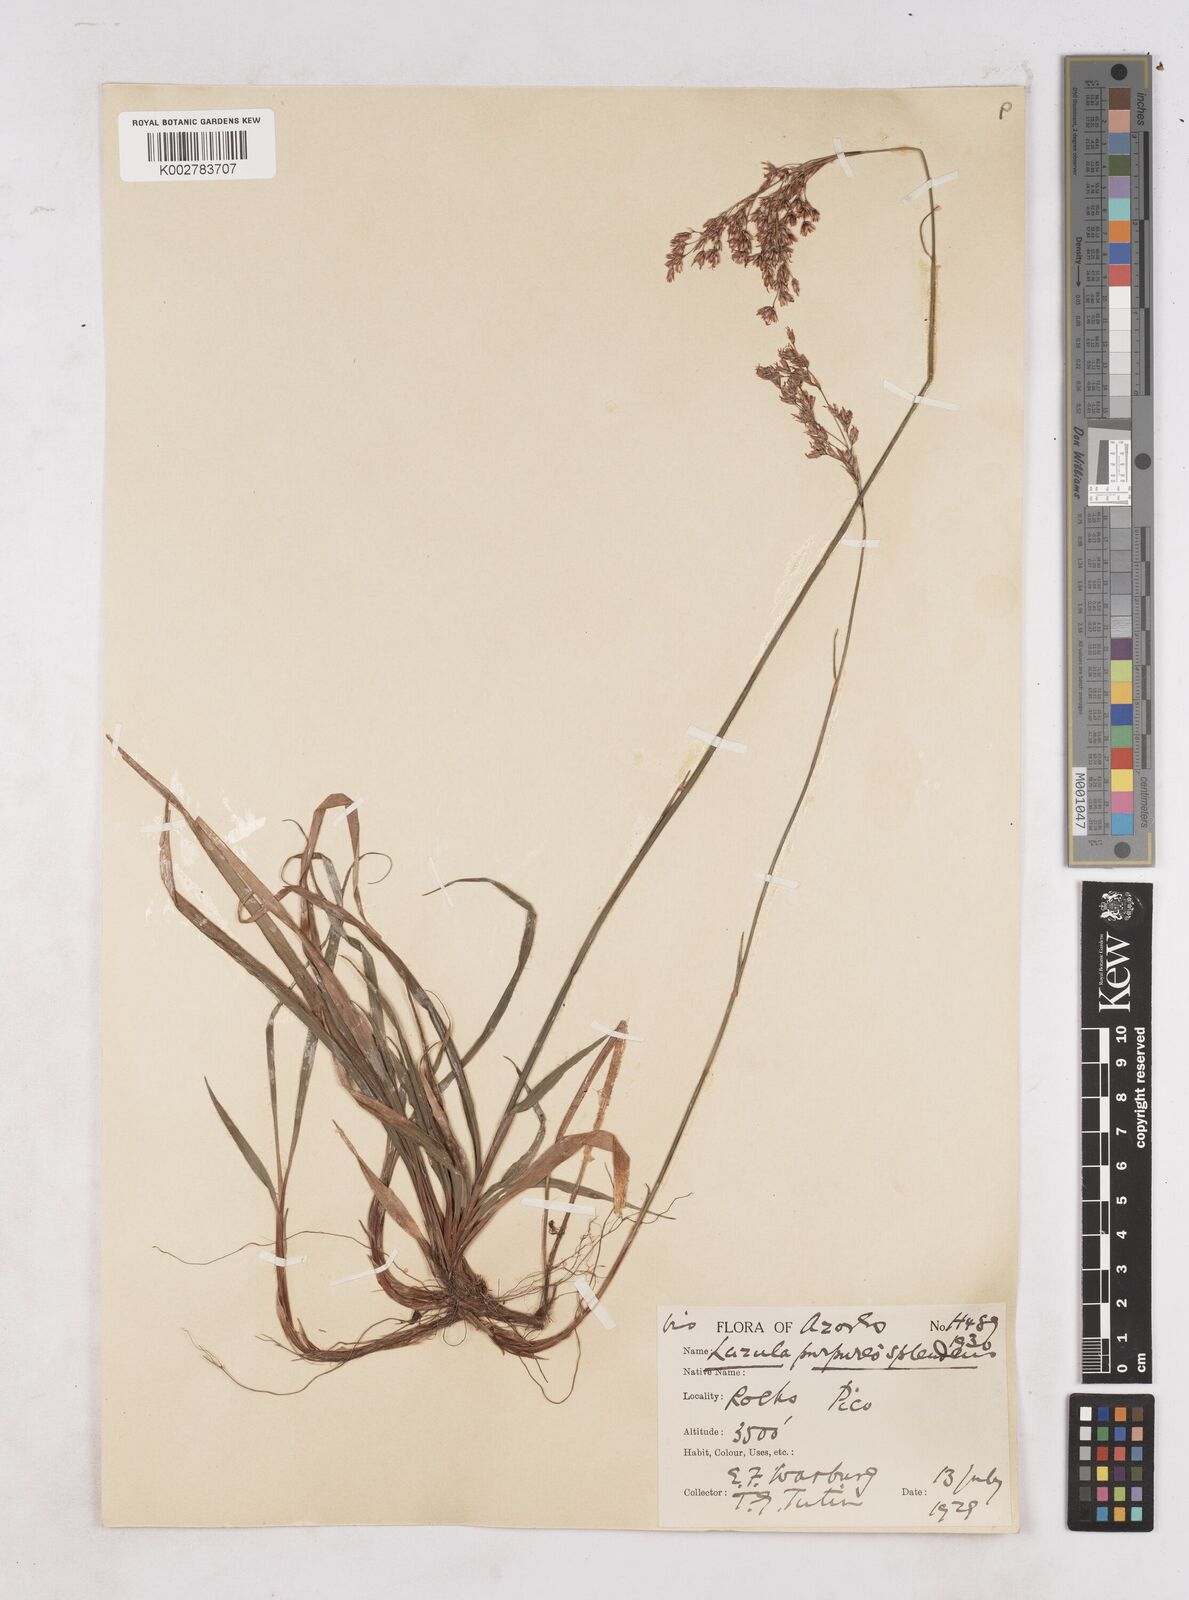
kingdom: Plantae
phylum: Tracheophyta
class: Liliopsida
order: Poales
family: Juncaceae
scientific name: Juncaceae
